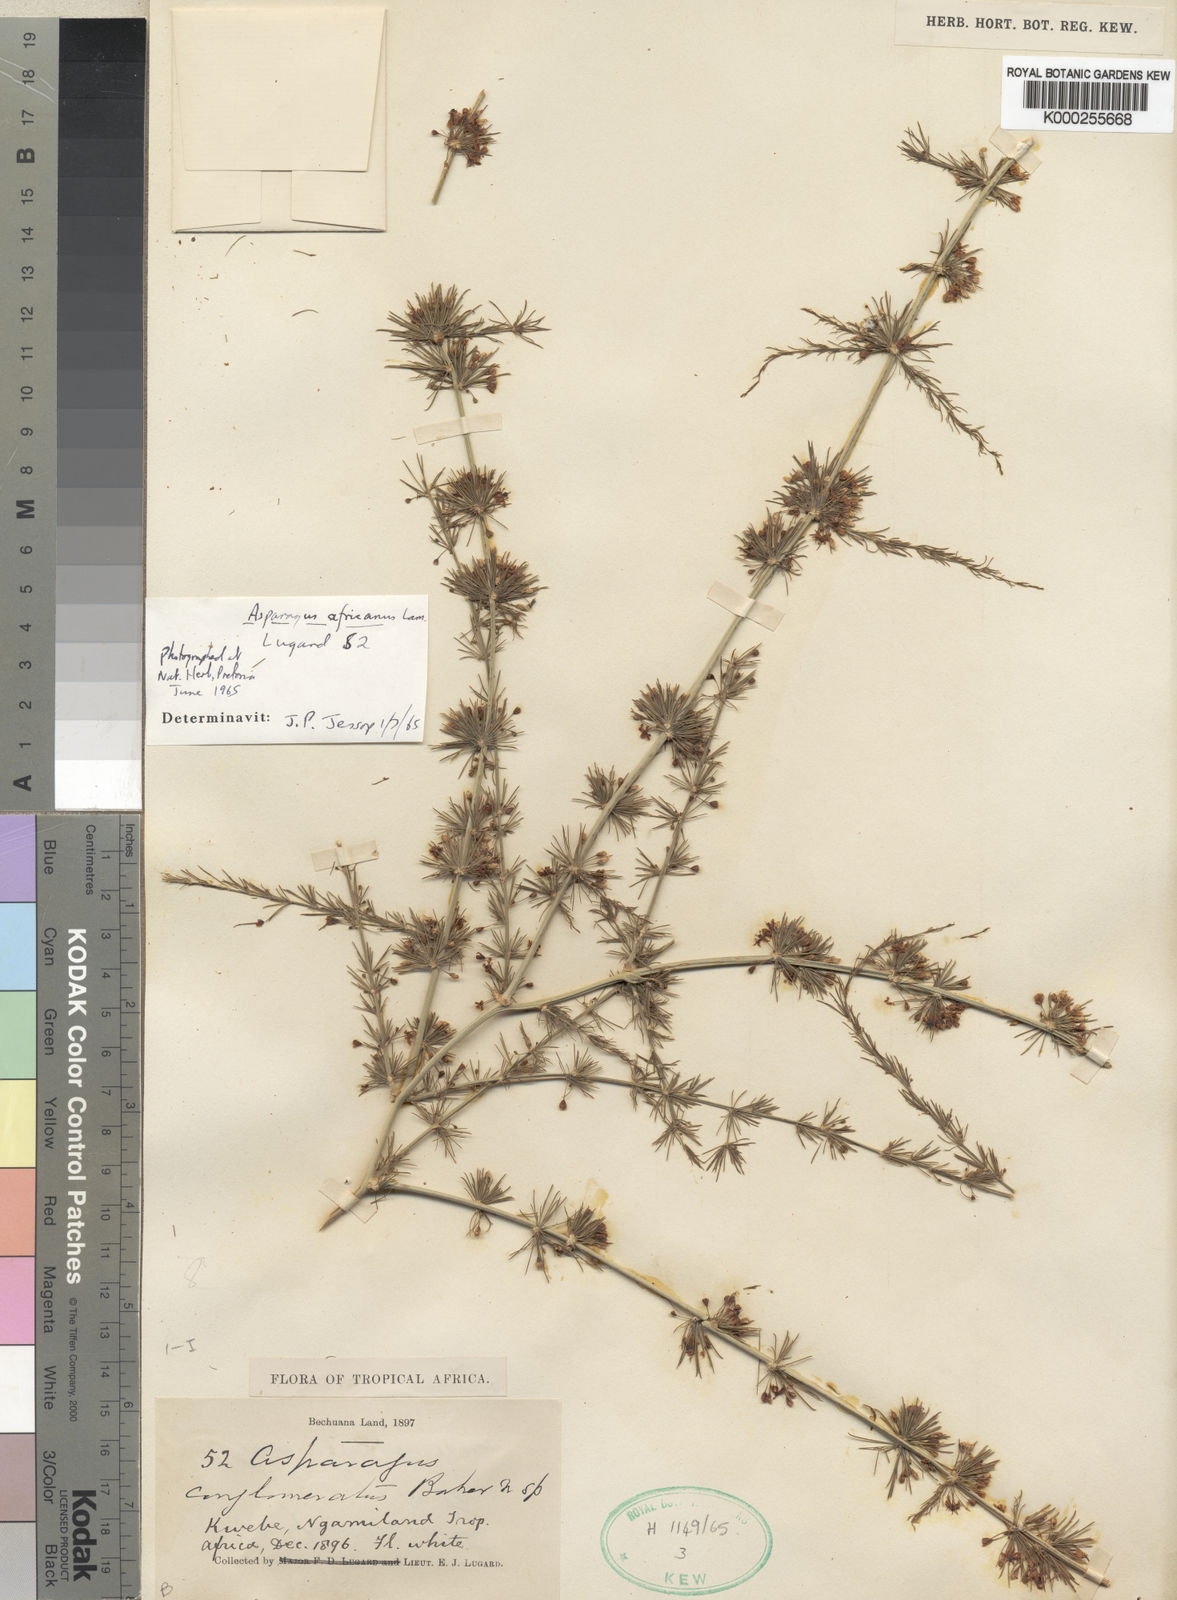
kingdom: Plantae
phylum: Tracheophyta
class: Liliopsida
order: Asparagales
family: Asparagaceae
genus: Asparagus
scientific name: Asparagus africanus
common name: Asparagus-fern
